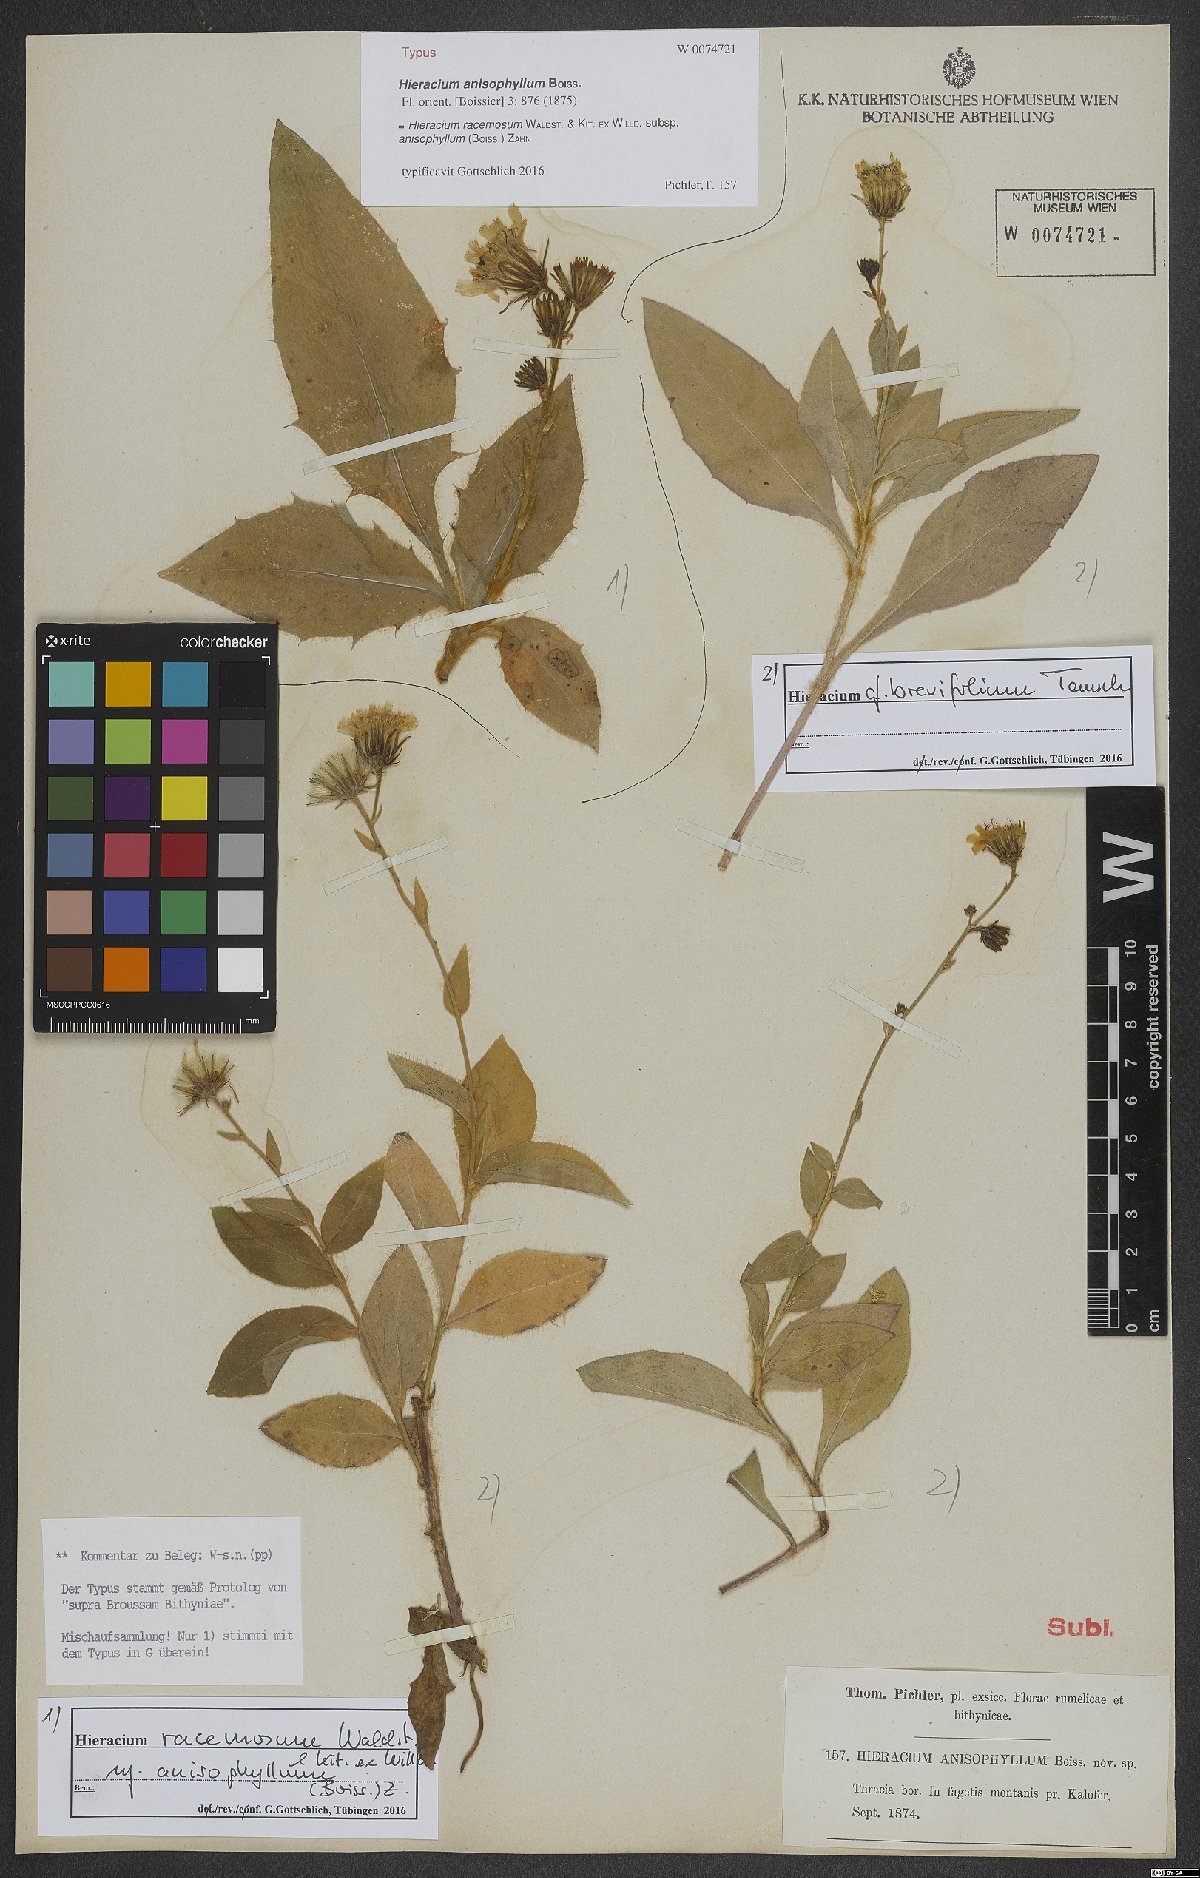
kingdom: Plantae
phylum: Tracheophyta
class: Magnoliopsida
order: Asterales
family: Asteraceae
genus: Hieracium
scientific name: Hieracium racemosum
